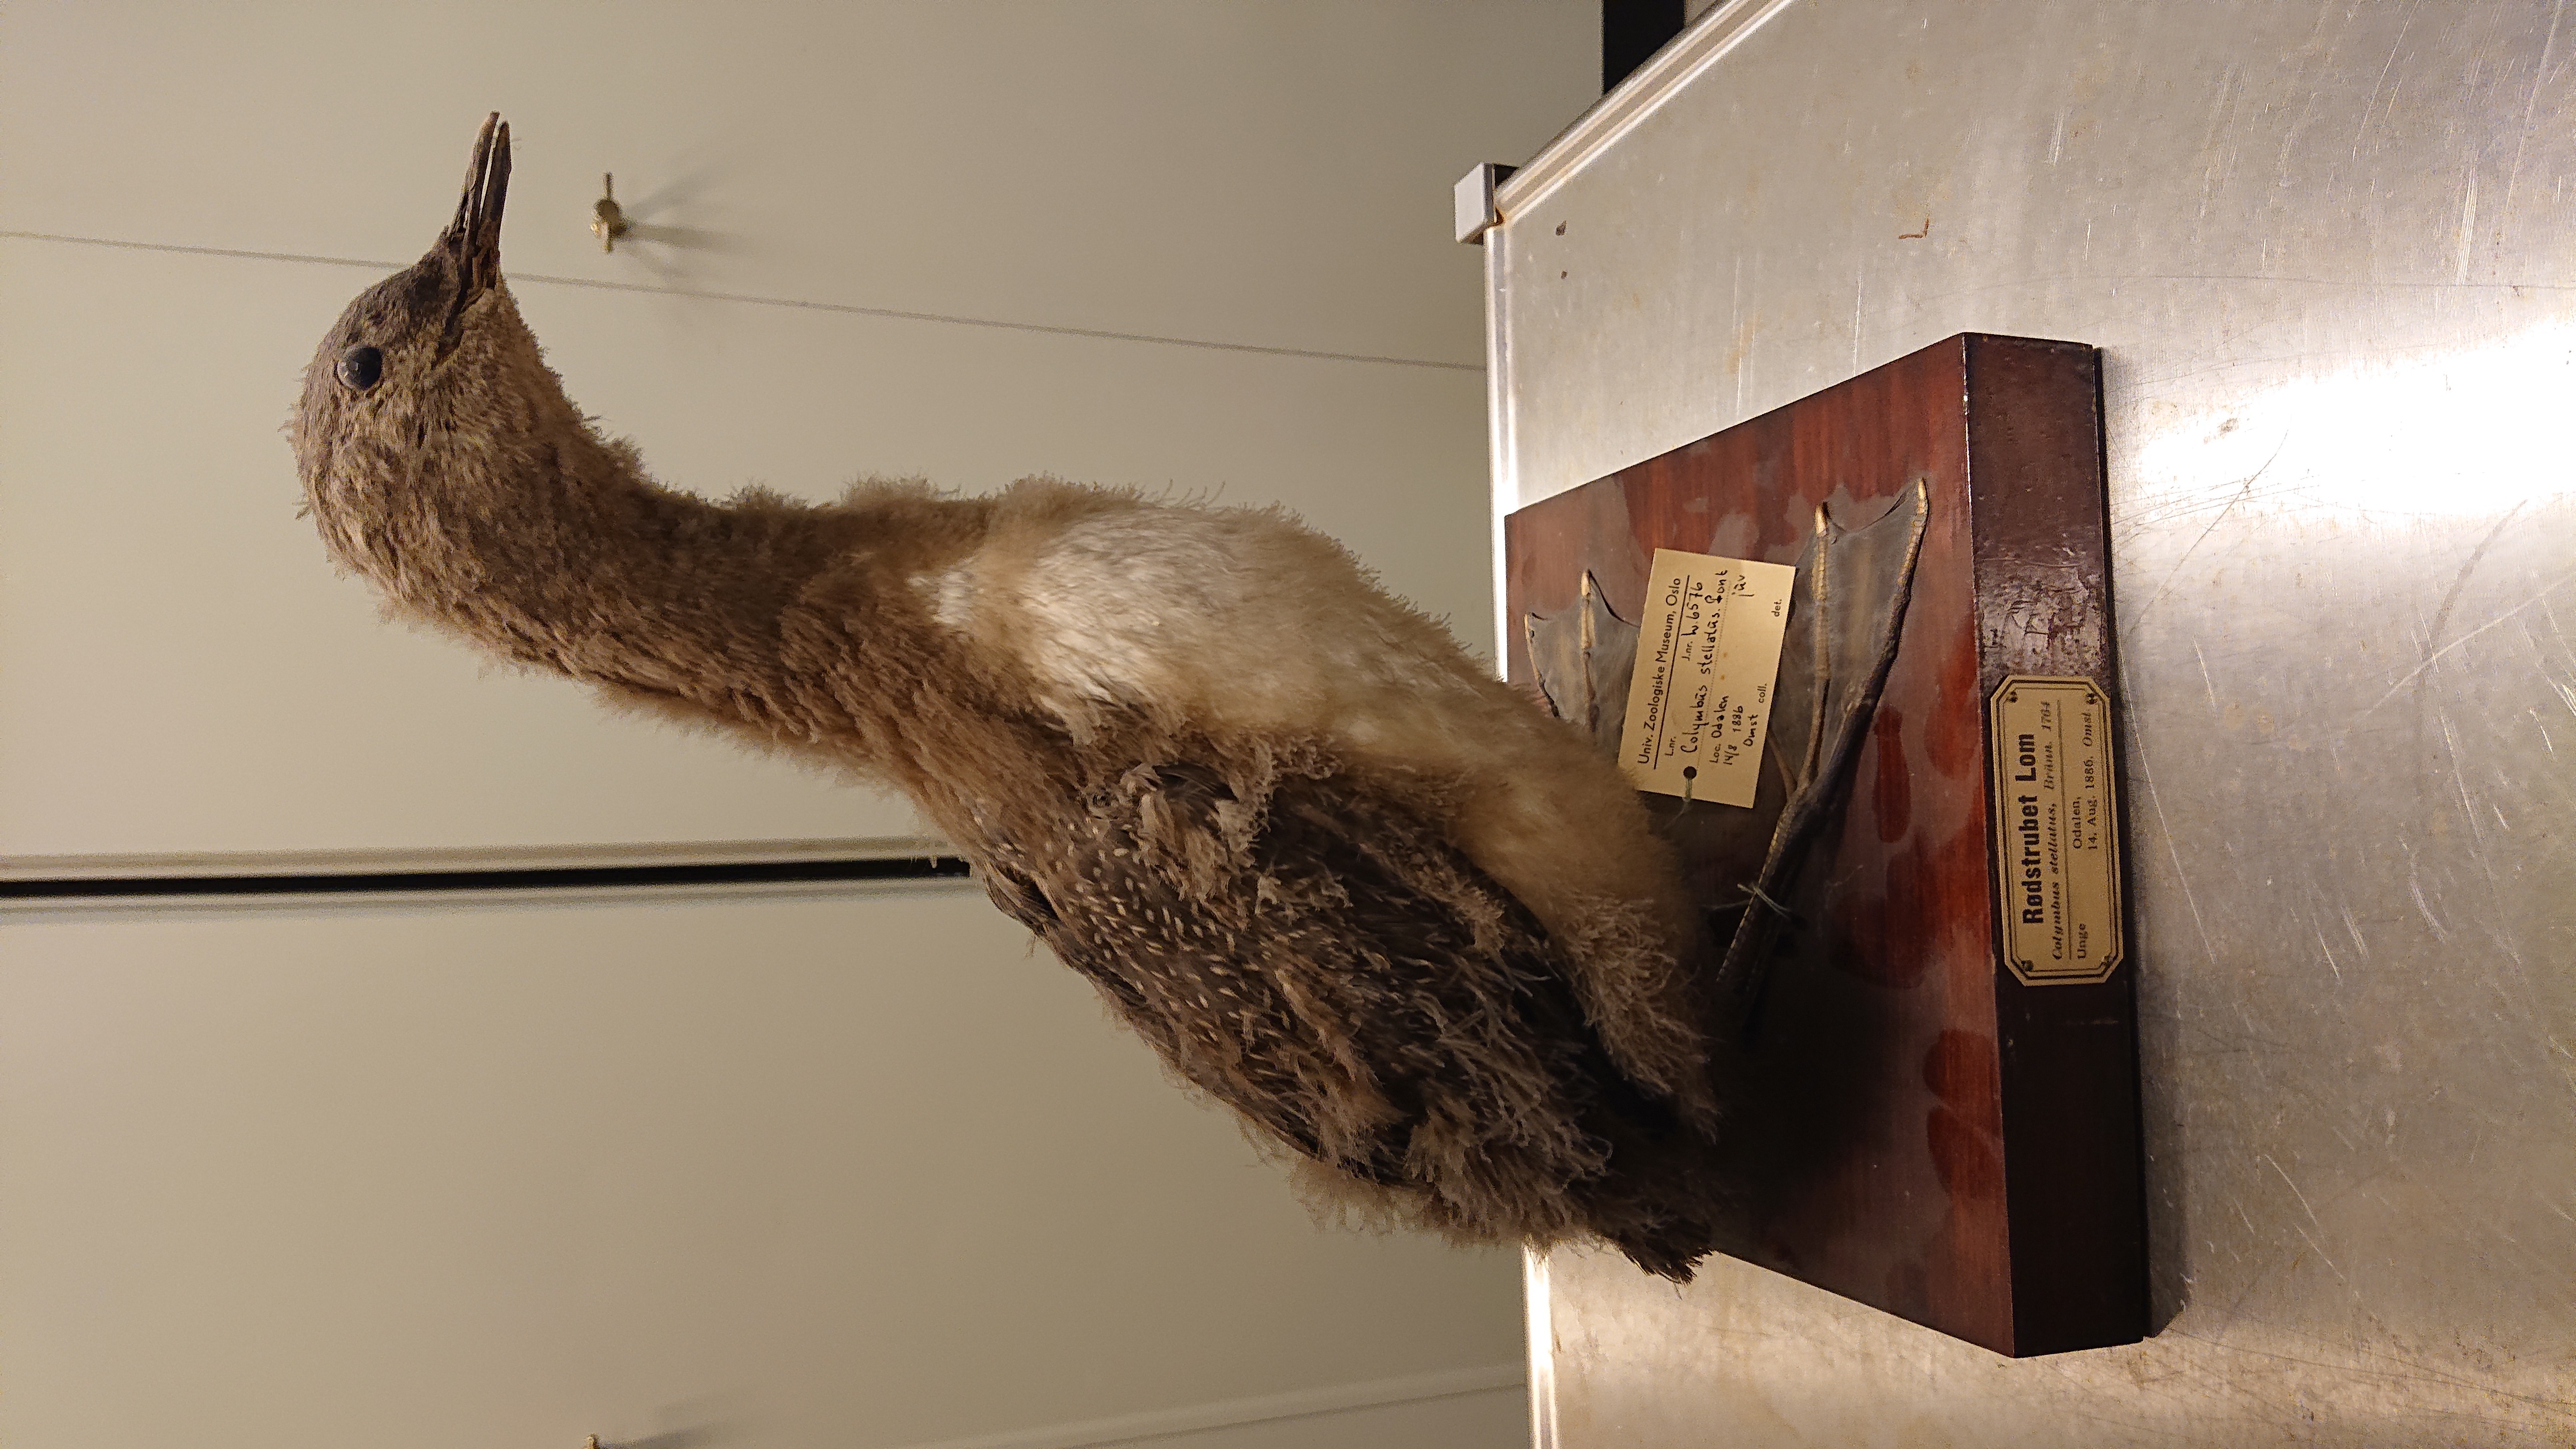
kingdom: Animalia
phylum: Chordata
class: Aves
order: Gaviiformes
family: Gaviidae
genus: Gavia
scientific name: Gavia stellata
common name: Red-throated loon
